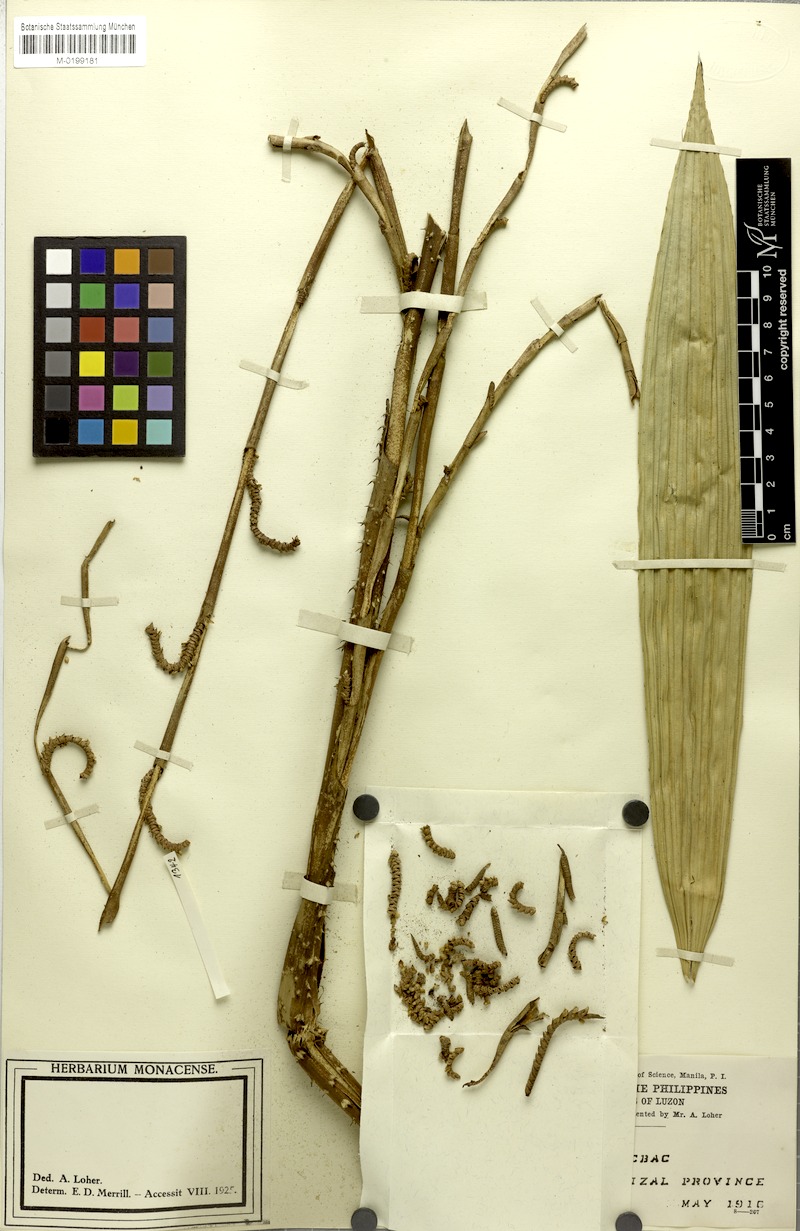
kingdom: Plantae
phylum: Tracheophyta
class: Liliopsida
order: Arecales
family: Arecaceae
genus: Calamus
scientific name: Calamus manillensis
